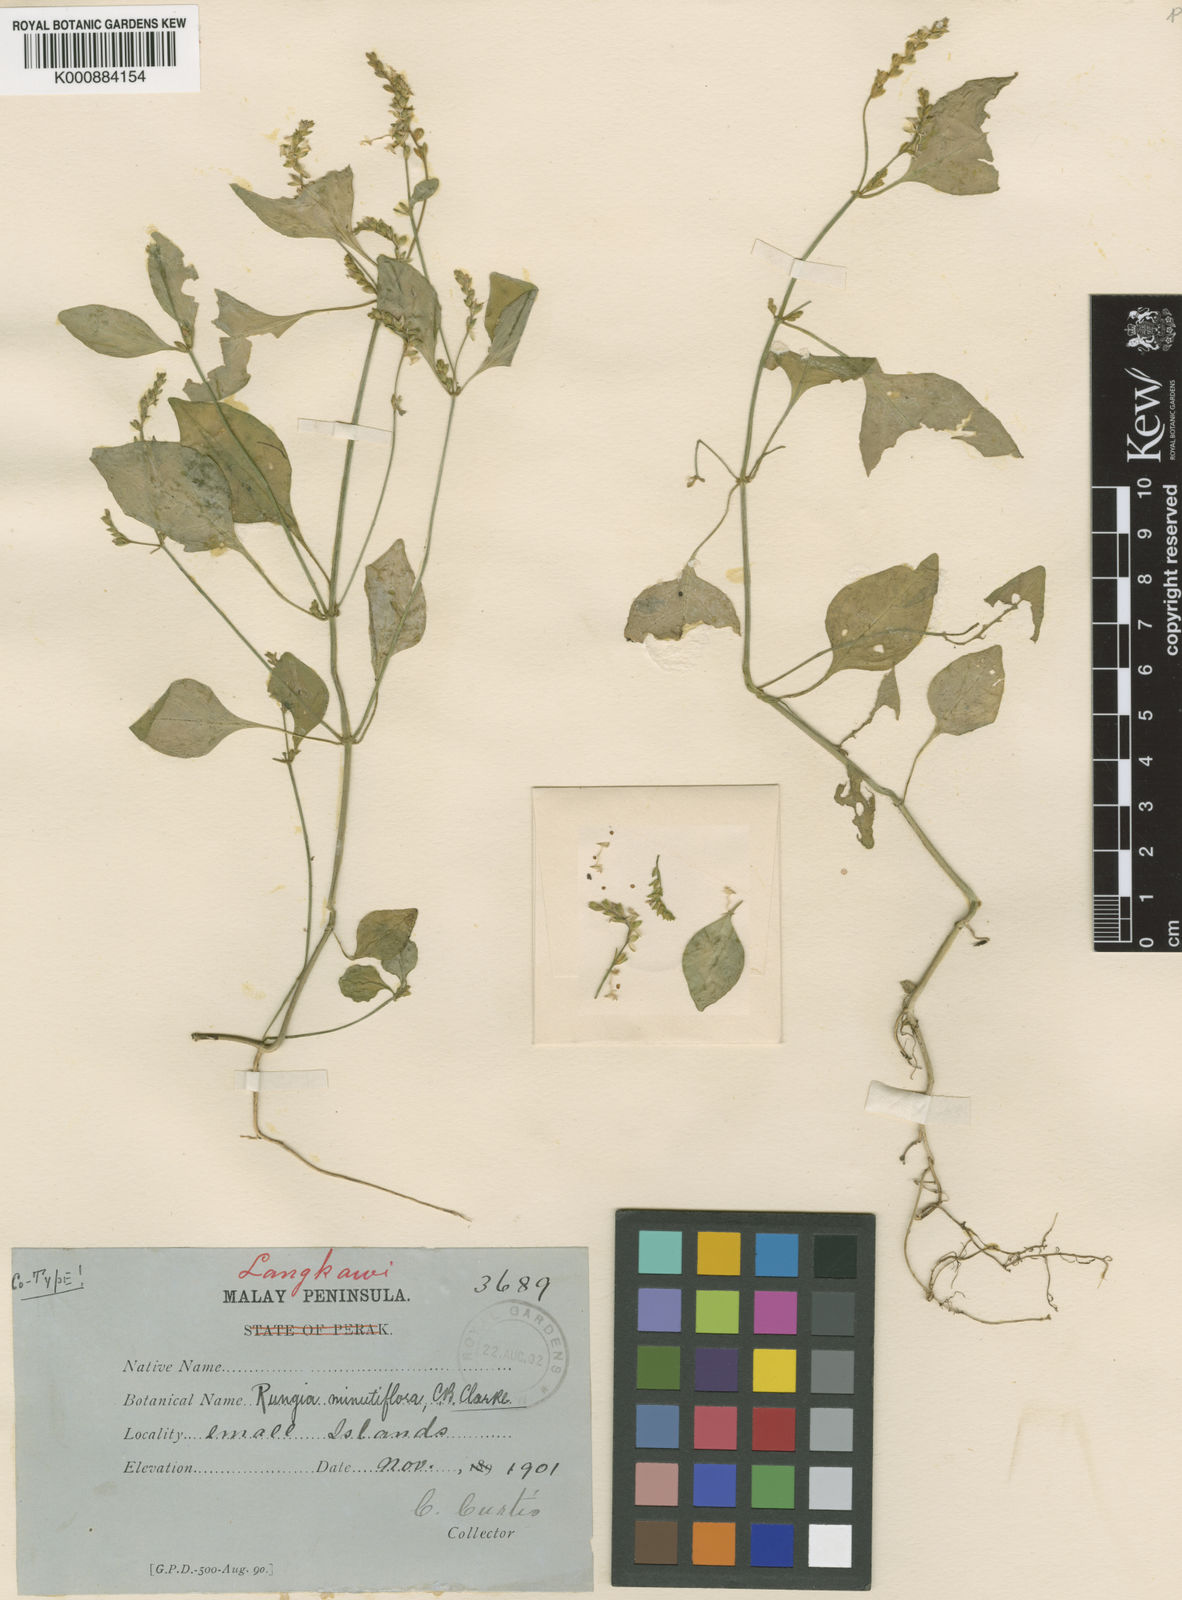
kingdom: Plantae
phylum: Tracheophyta
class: Magnoliopsida
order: Lamiales
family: Acanthaceae
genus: Justicia
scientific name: Justicia minutiflora
